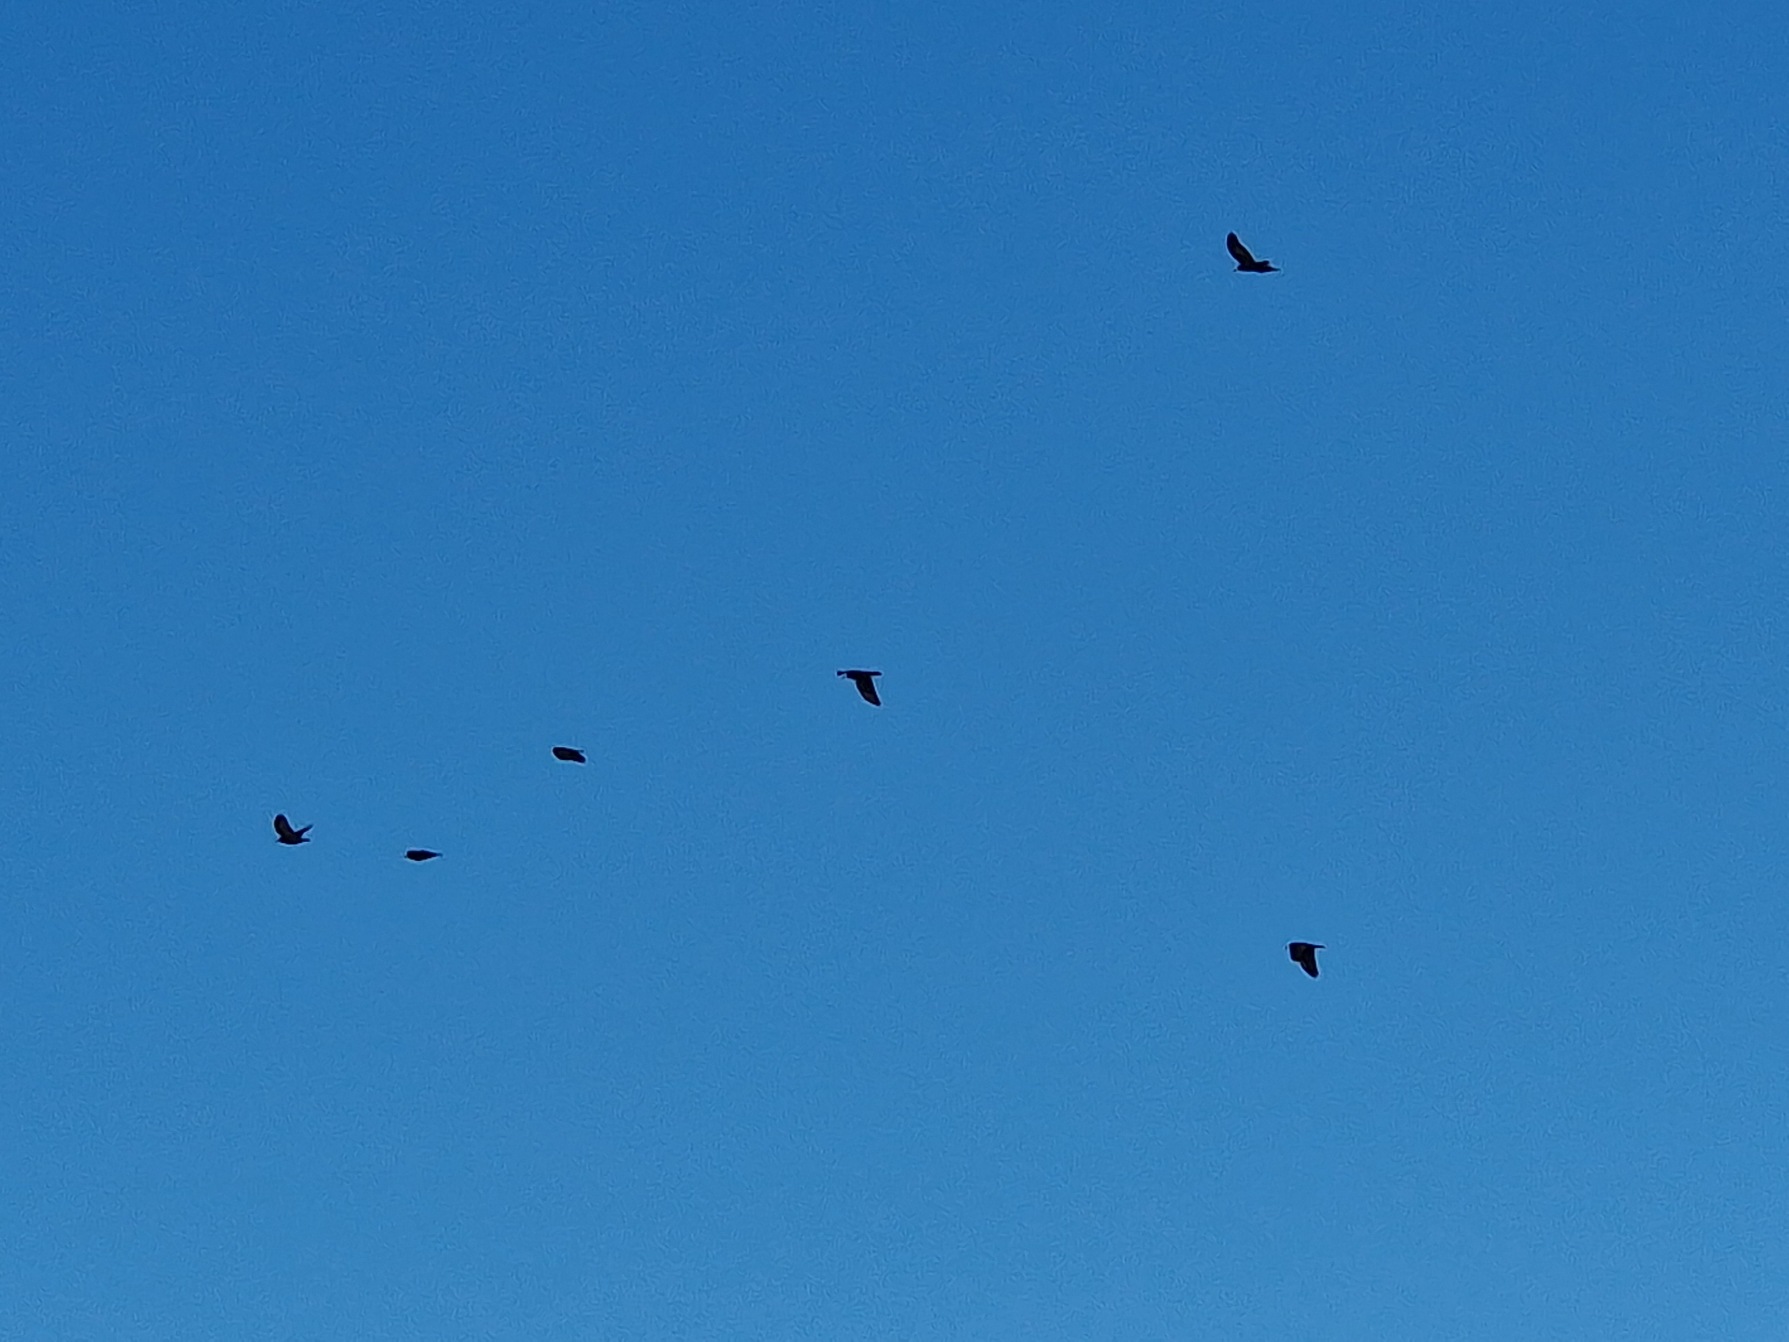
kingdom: Animalia
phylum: Chordata
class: Aves
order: Passeriformes
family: Corvidae
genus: Corvus
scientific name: Corvus frugilegus
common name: Råge
